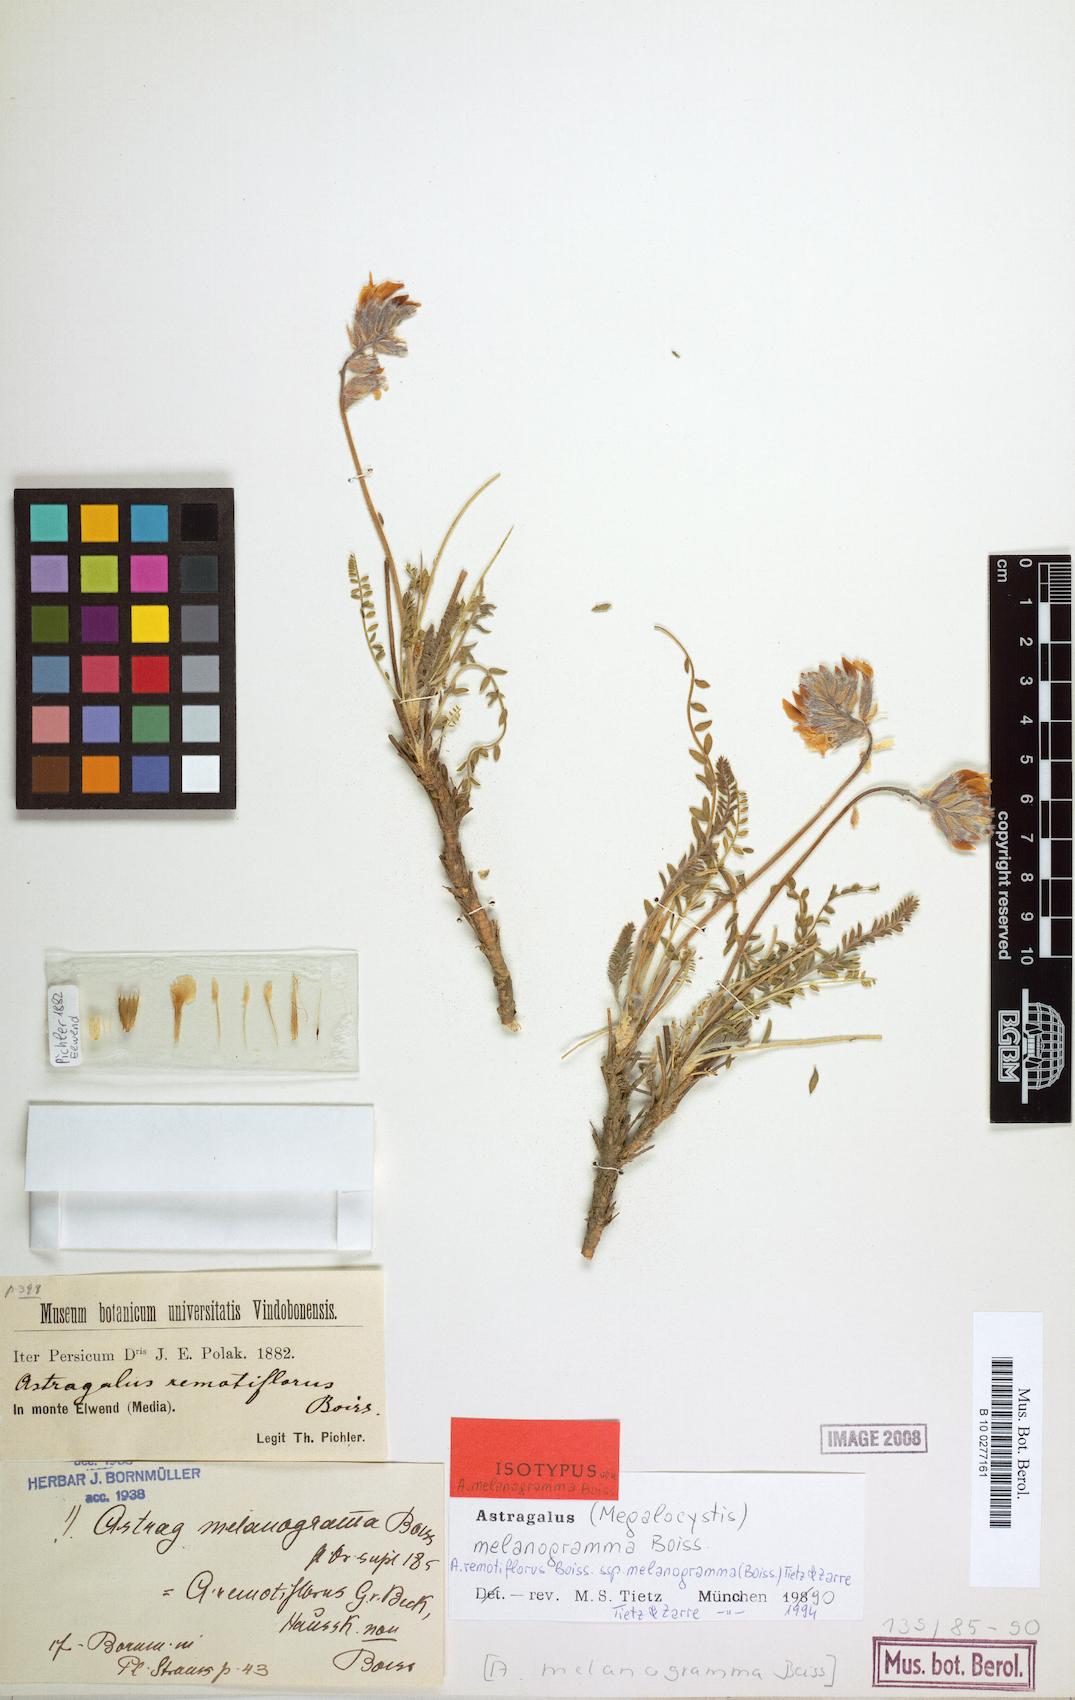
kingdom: Plantae
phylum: Tracheophyta
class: Magnoliopsida
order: Fabales
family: Fabaceae
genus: Astragalus
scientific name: Astragalus remotiflorus
